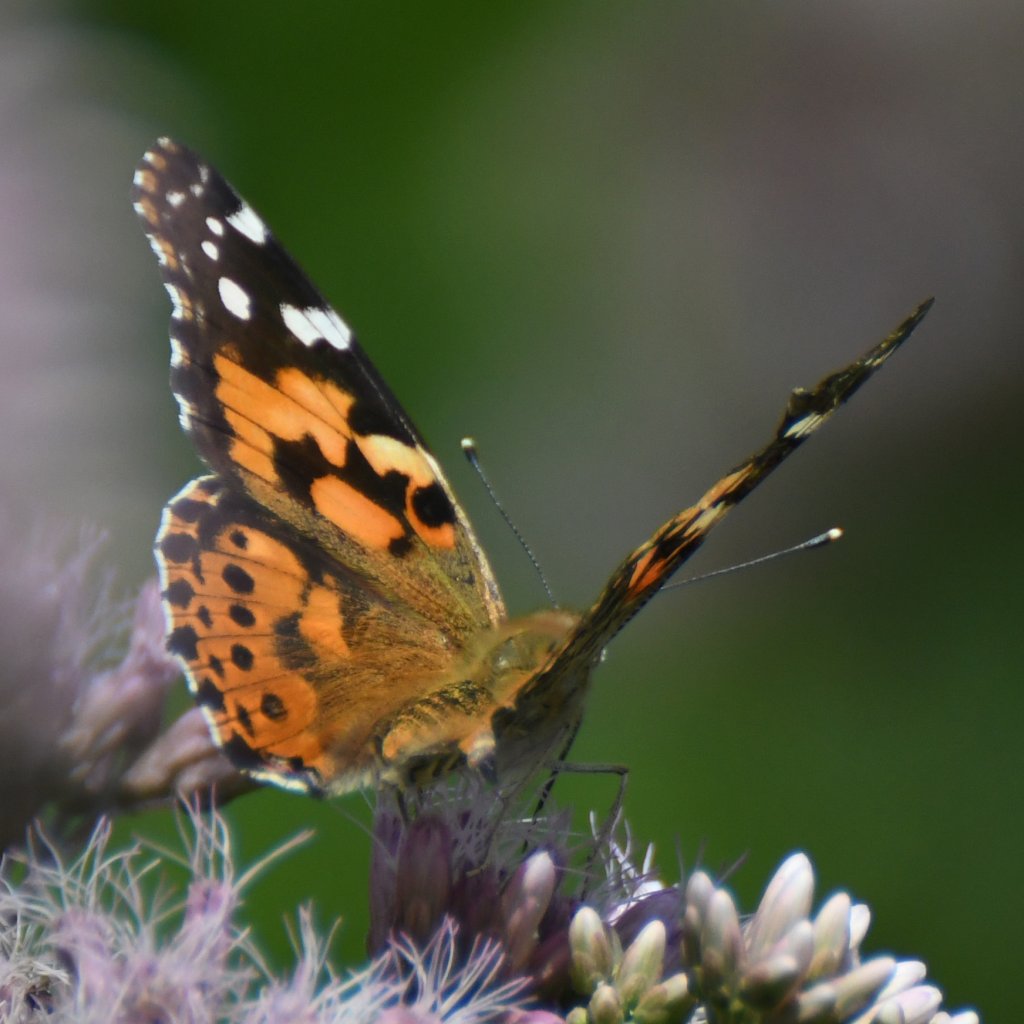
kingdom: Animalia
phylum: Arthropoda
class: Insecta
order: Lepidoptera
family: Nymphalidae
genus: Vanessa
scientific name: Vanessa cardui
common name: Painted Lady
